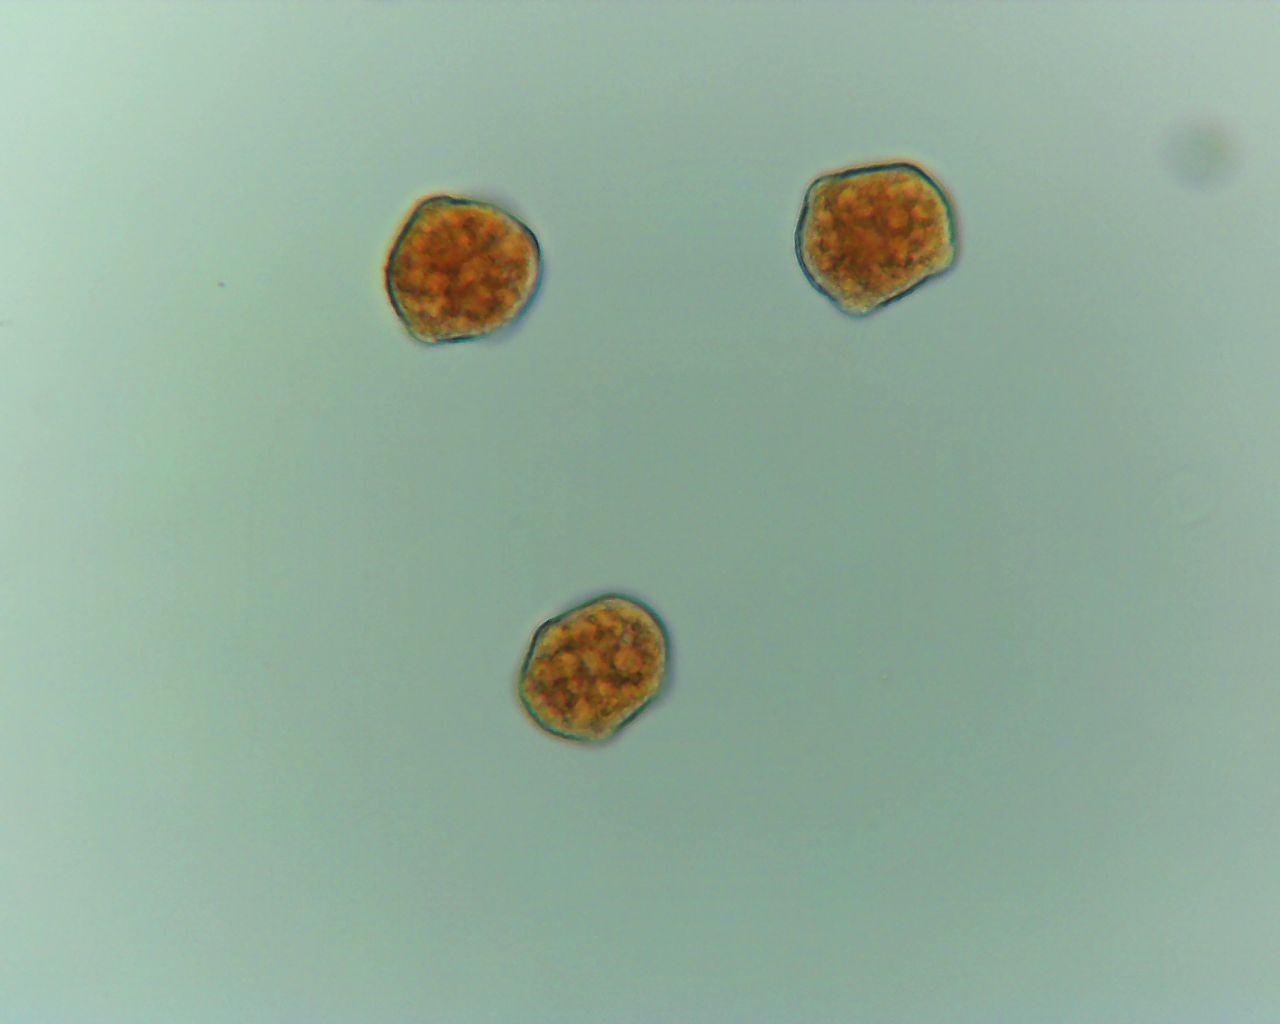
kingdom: Fungi
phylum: Basidiomycota
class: Pucciniomycetes
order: Pucciniales
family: Phragmidiaceae
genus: Phragmidium
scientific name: Phragmidium tuberculatum
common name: Rose rust
